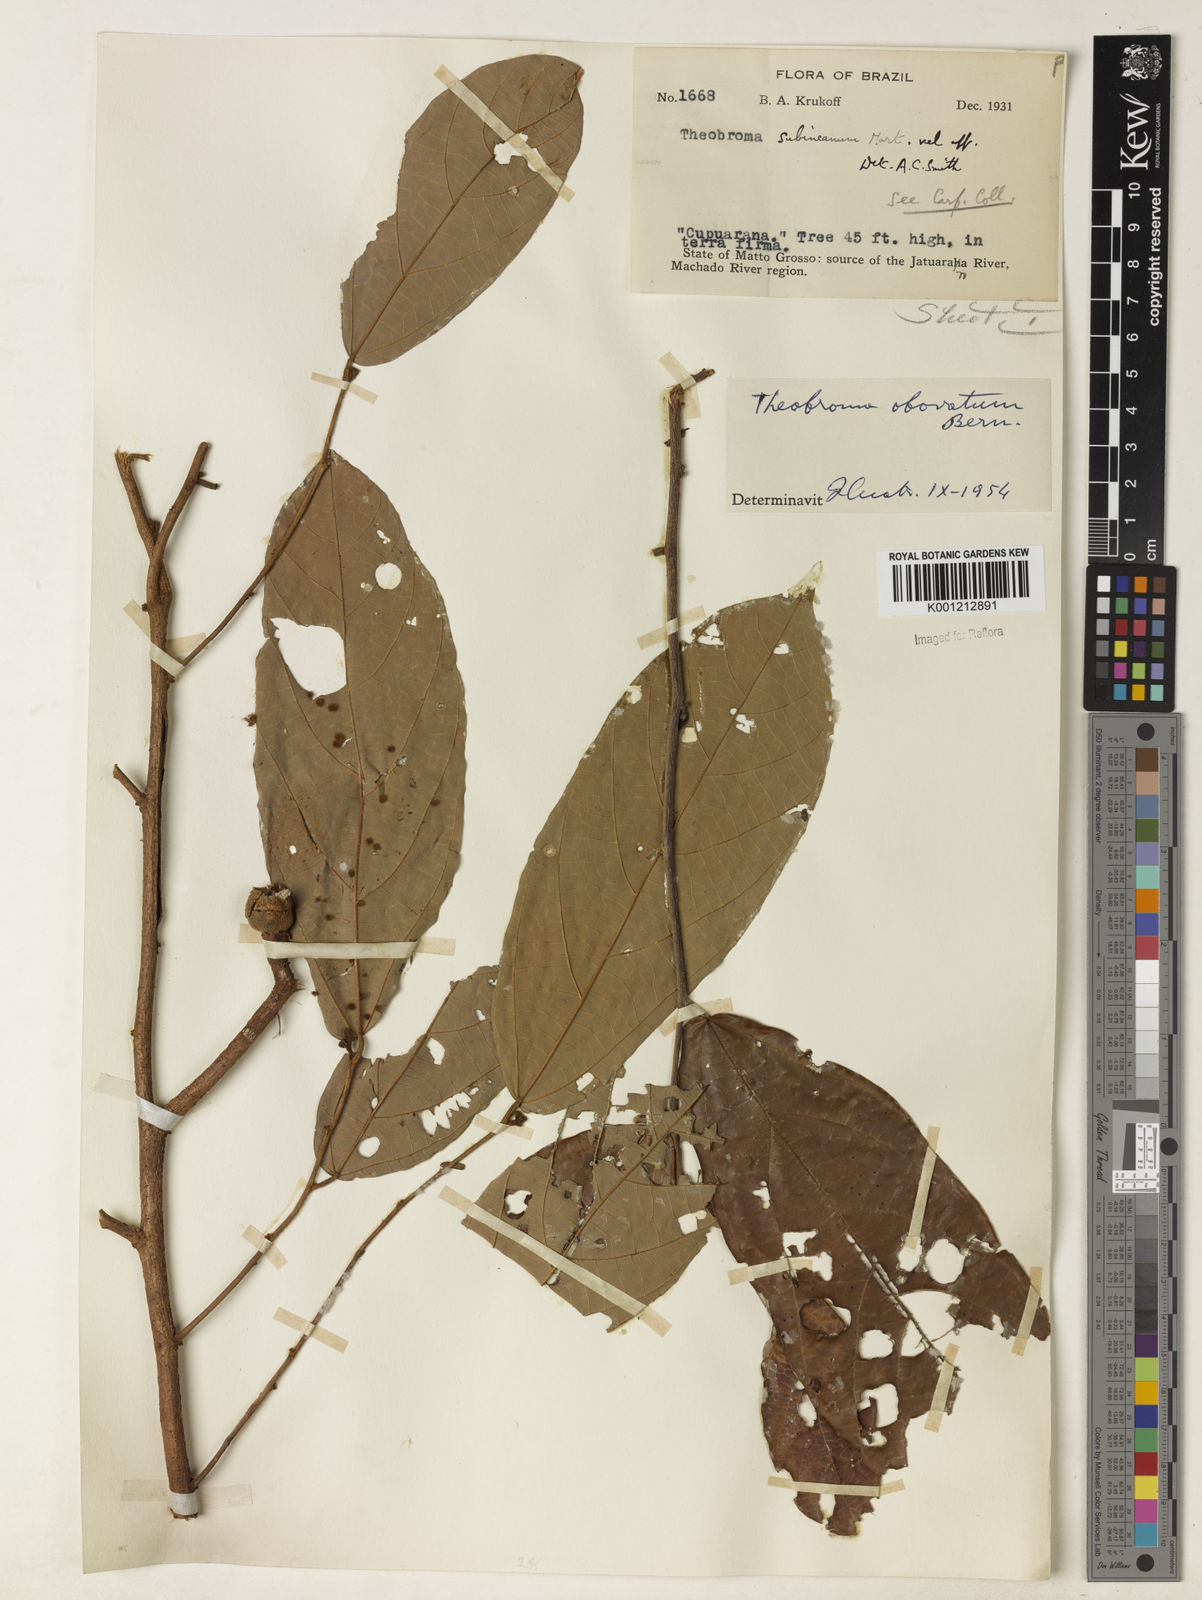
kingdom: Plantae
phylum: Tracheophyta
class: Magnoliopsida
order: Malvales
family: Malvaceae
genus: Theobroma
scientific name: Theobroma obovatum
